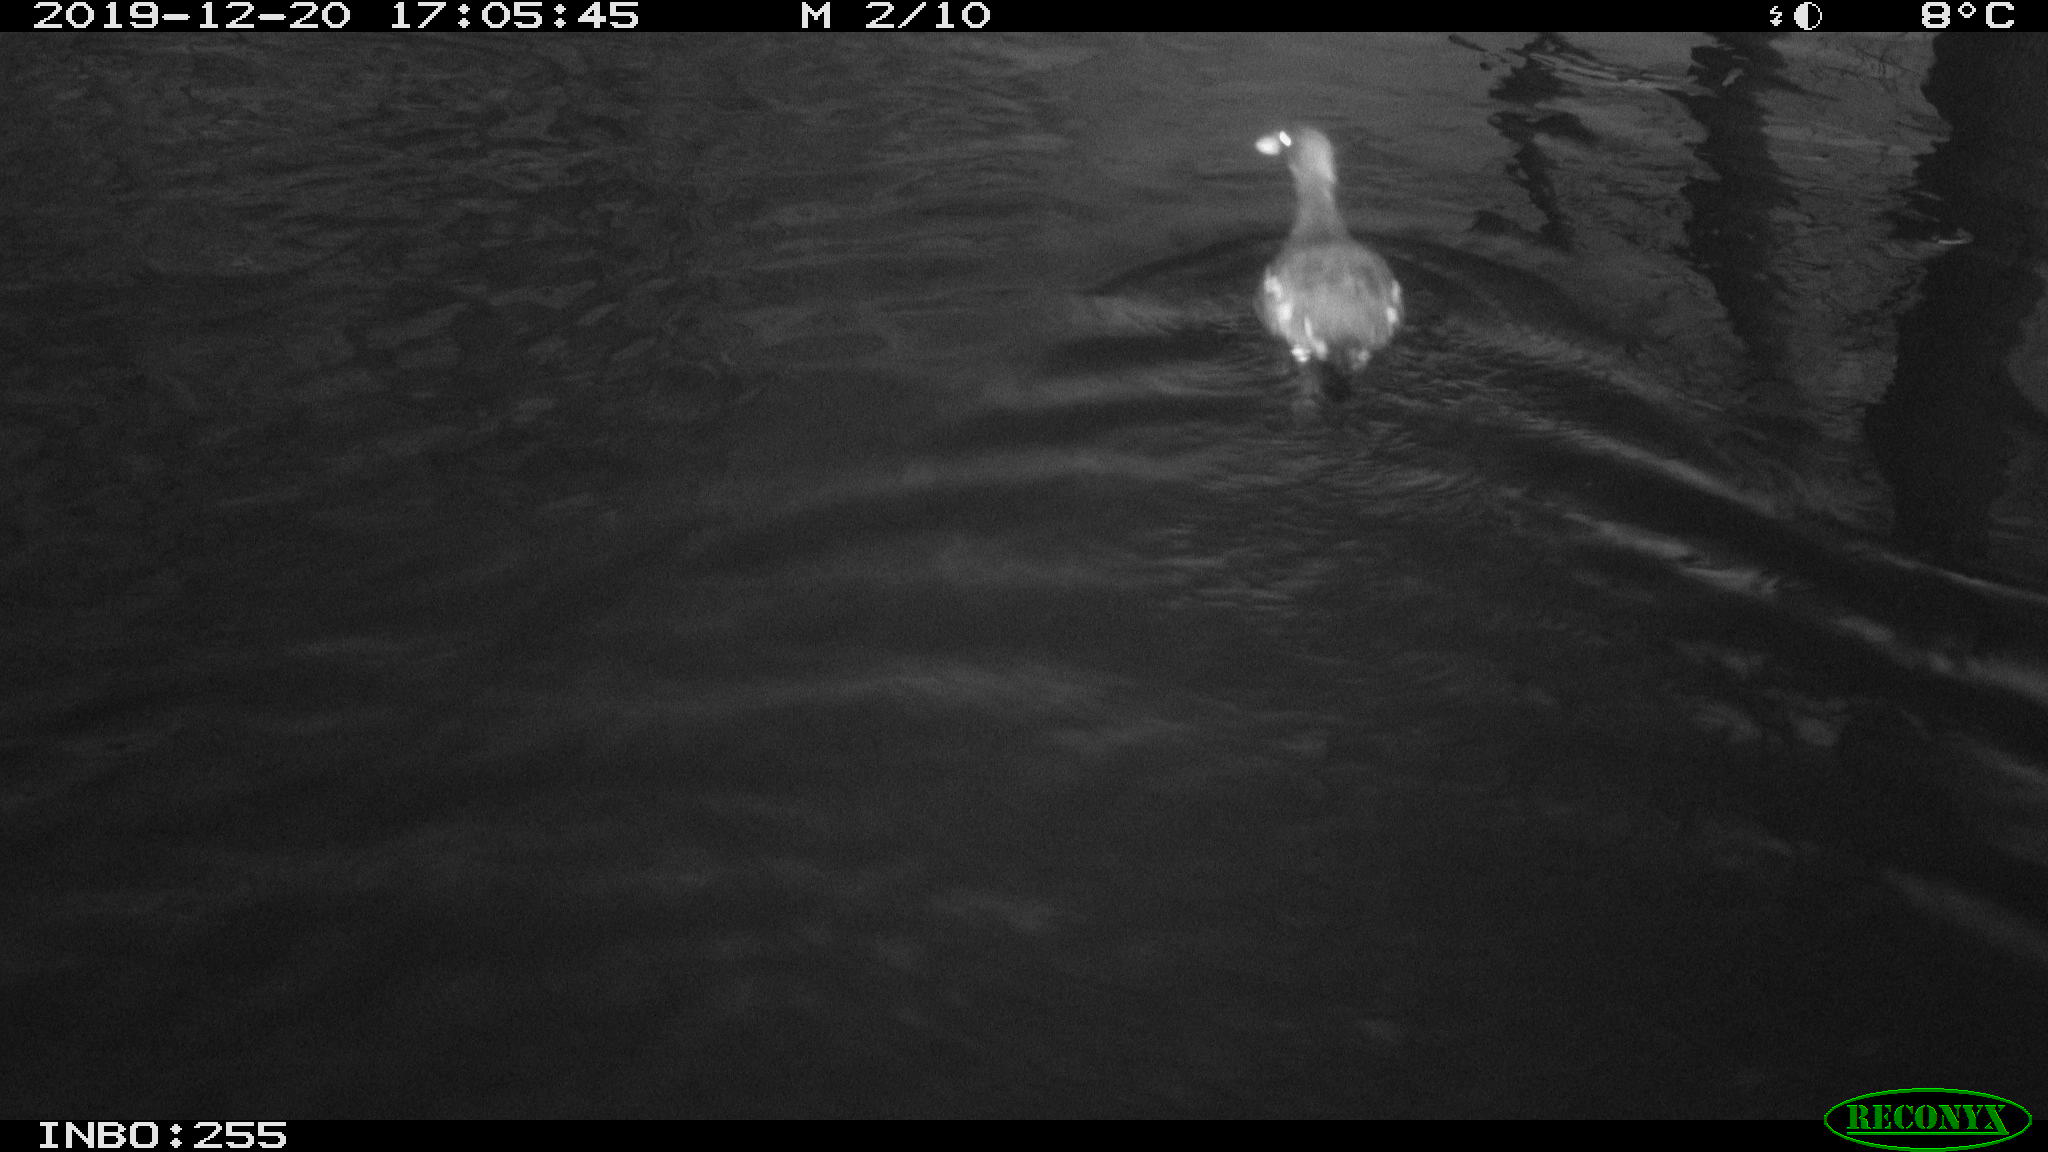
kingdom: Animalia
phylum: Chordata
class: Aves
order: Gruiformes
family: Rallidae
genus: Gallinula
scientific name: Gallinula chloropus
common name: Common moorhen
